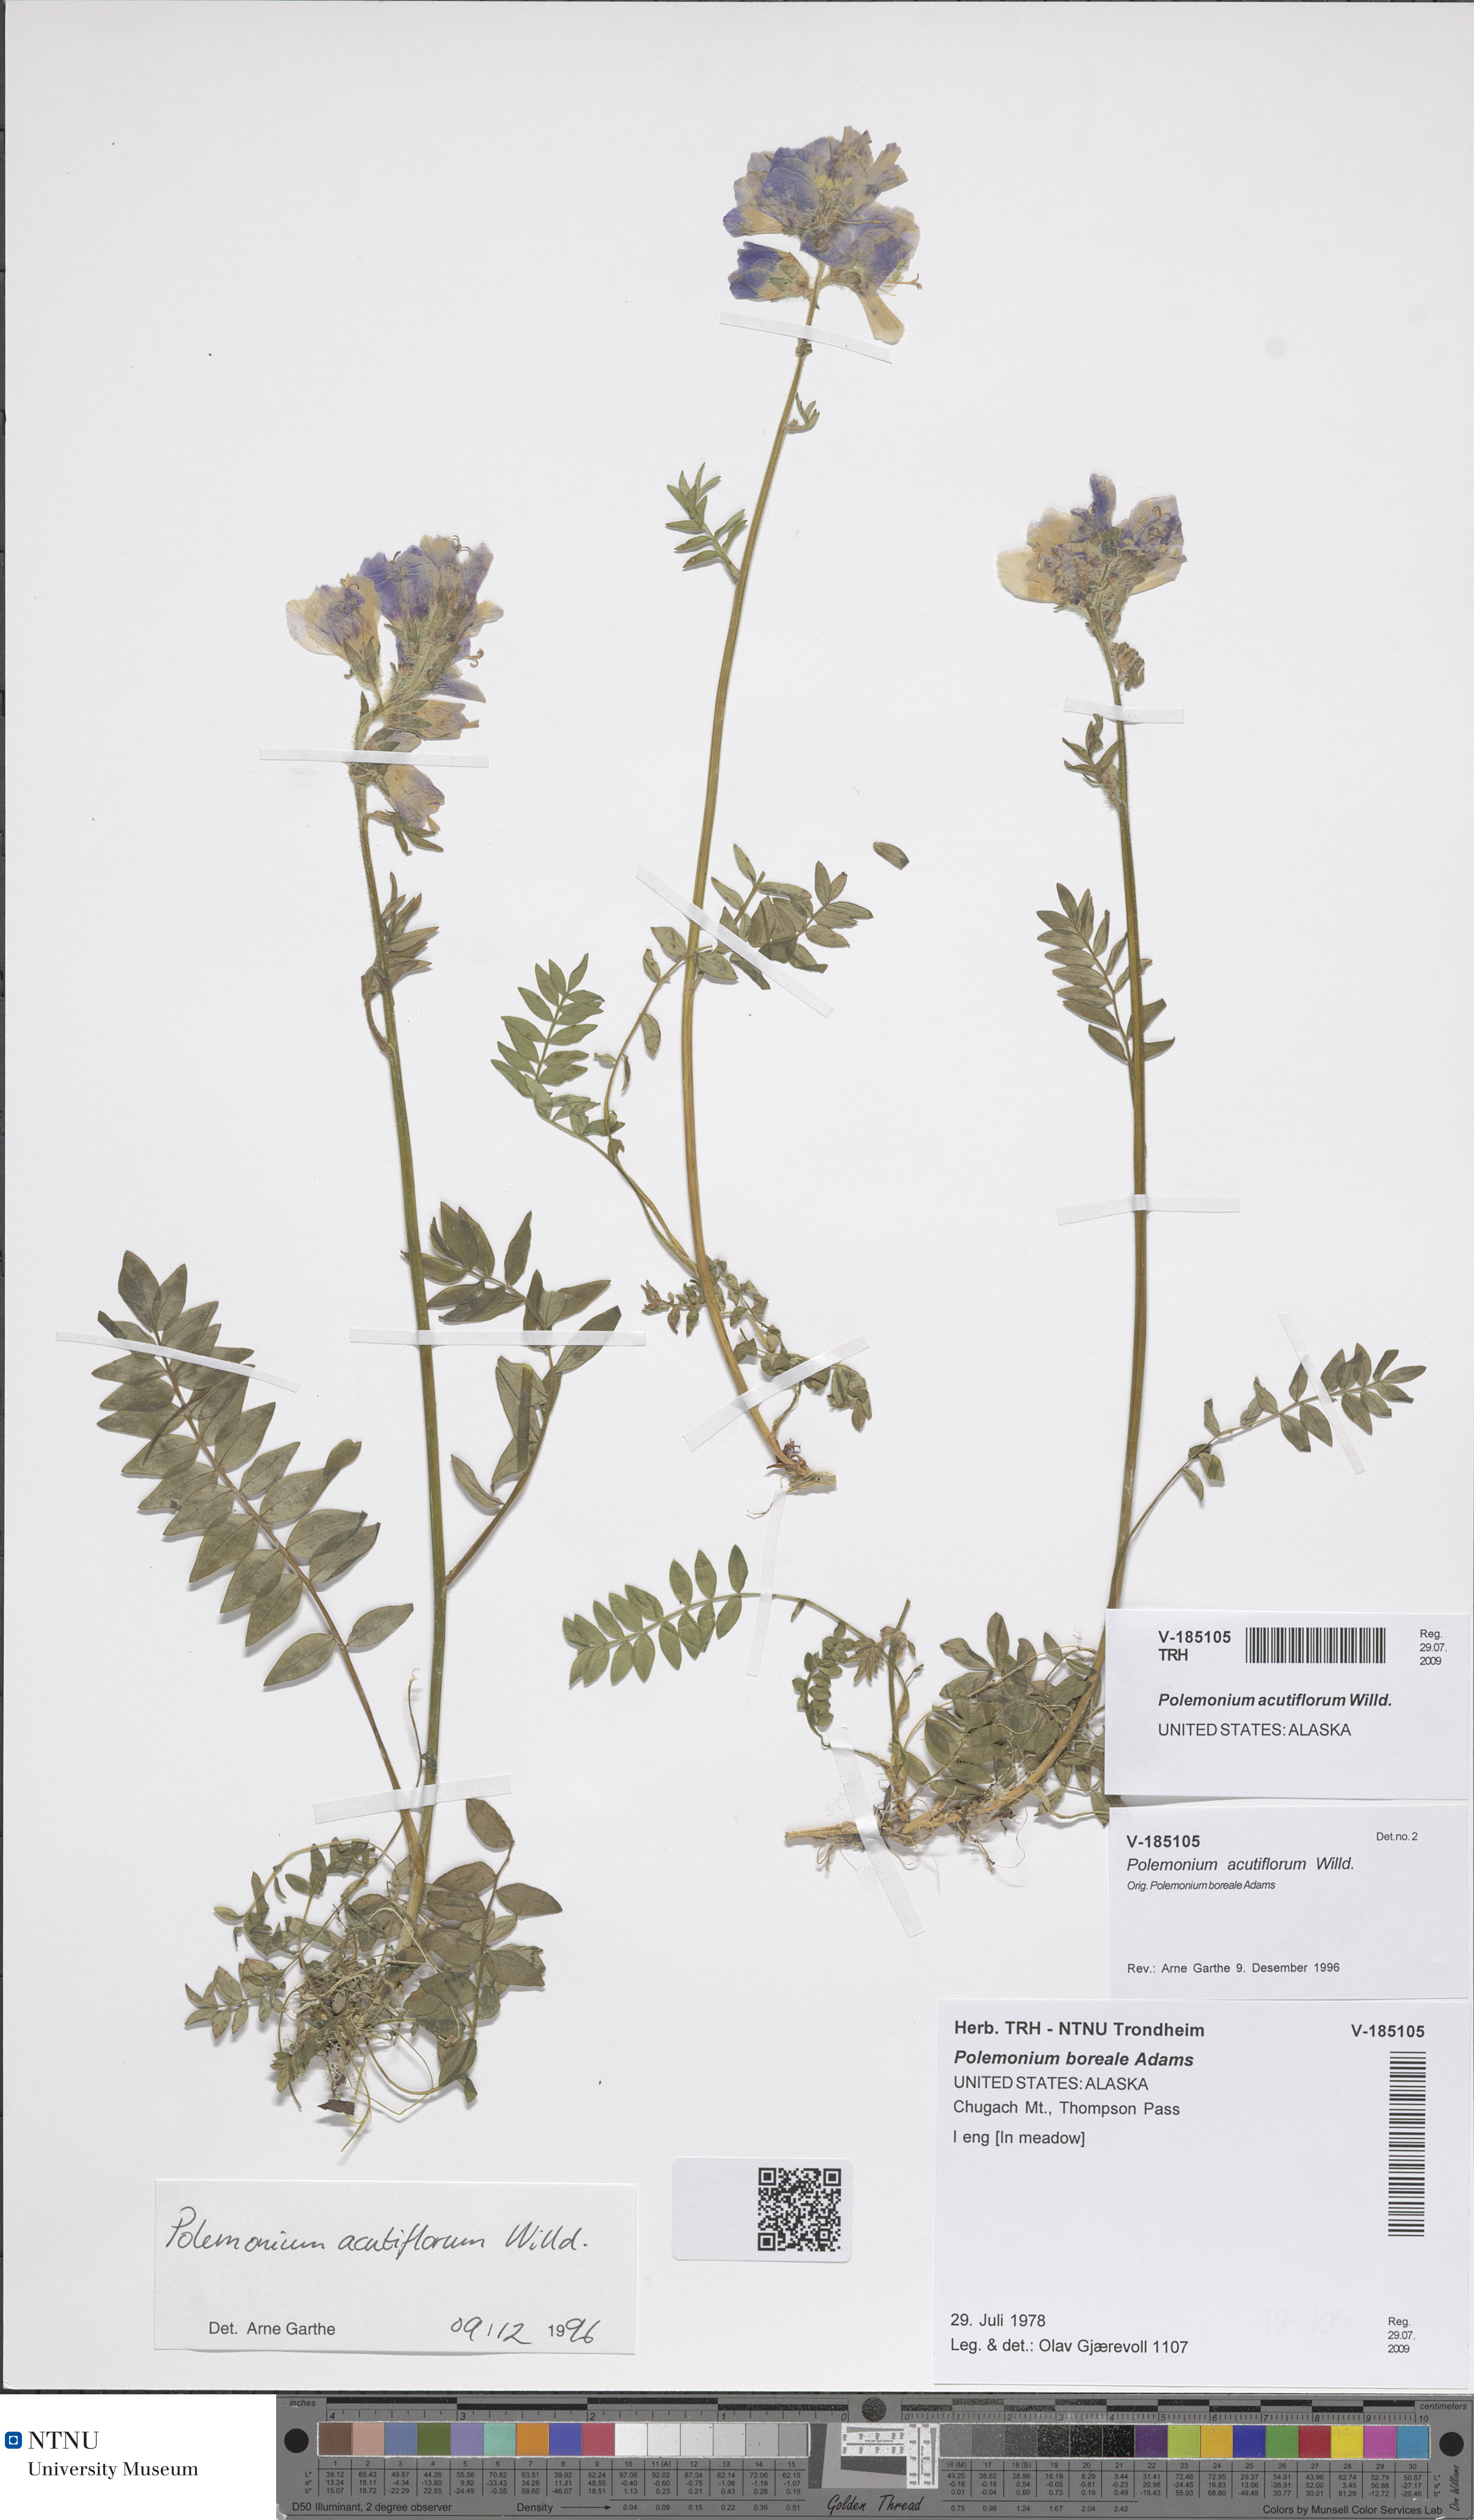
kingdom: Plantae
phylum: Tracheophyta
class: Magnoliopsida
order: Ericales
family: Polemoniaceae
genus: Polemonium
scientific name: Polemonium villosum
